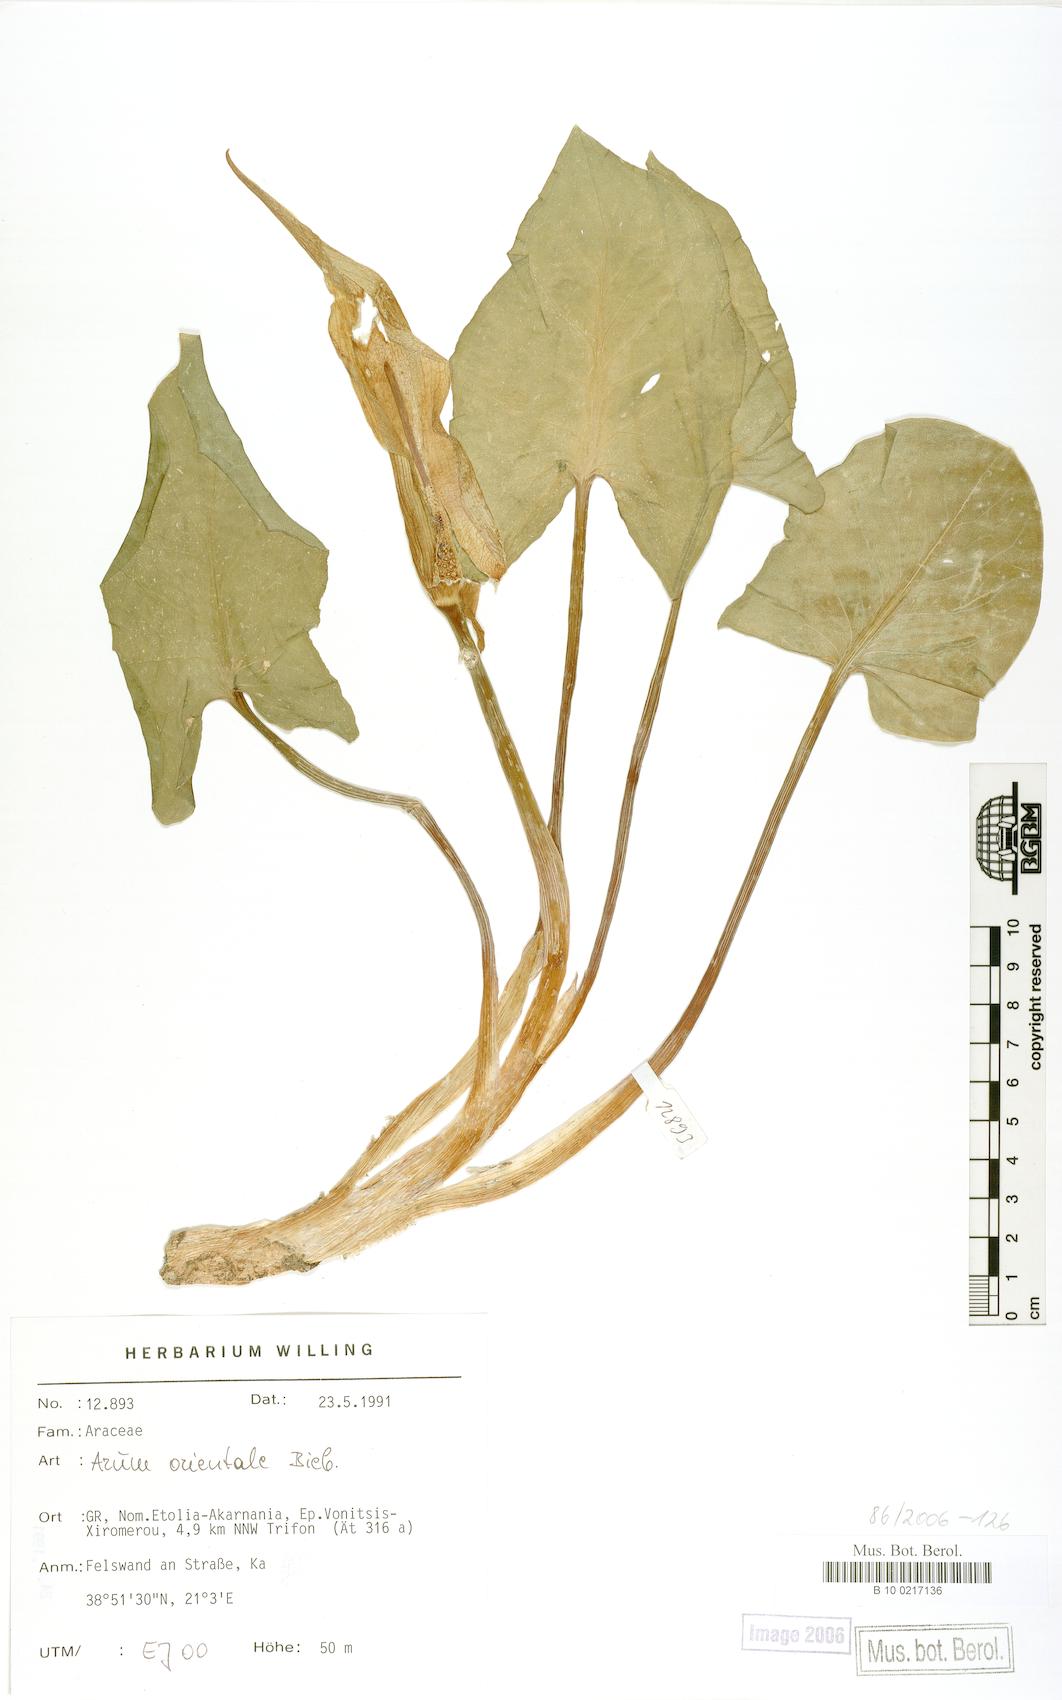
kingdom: Plantae
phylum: Tracheophyta
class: Liliopsida
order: Alismatales
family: Araceae
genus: Arum
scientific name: Arum orientale
